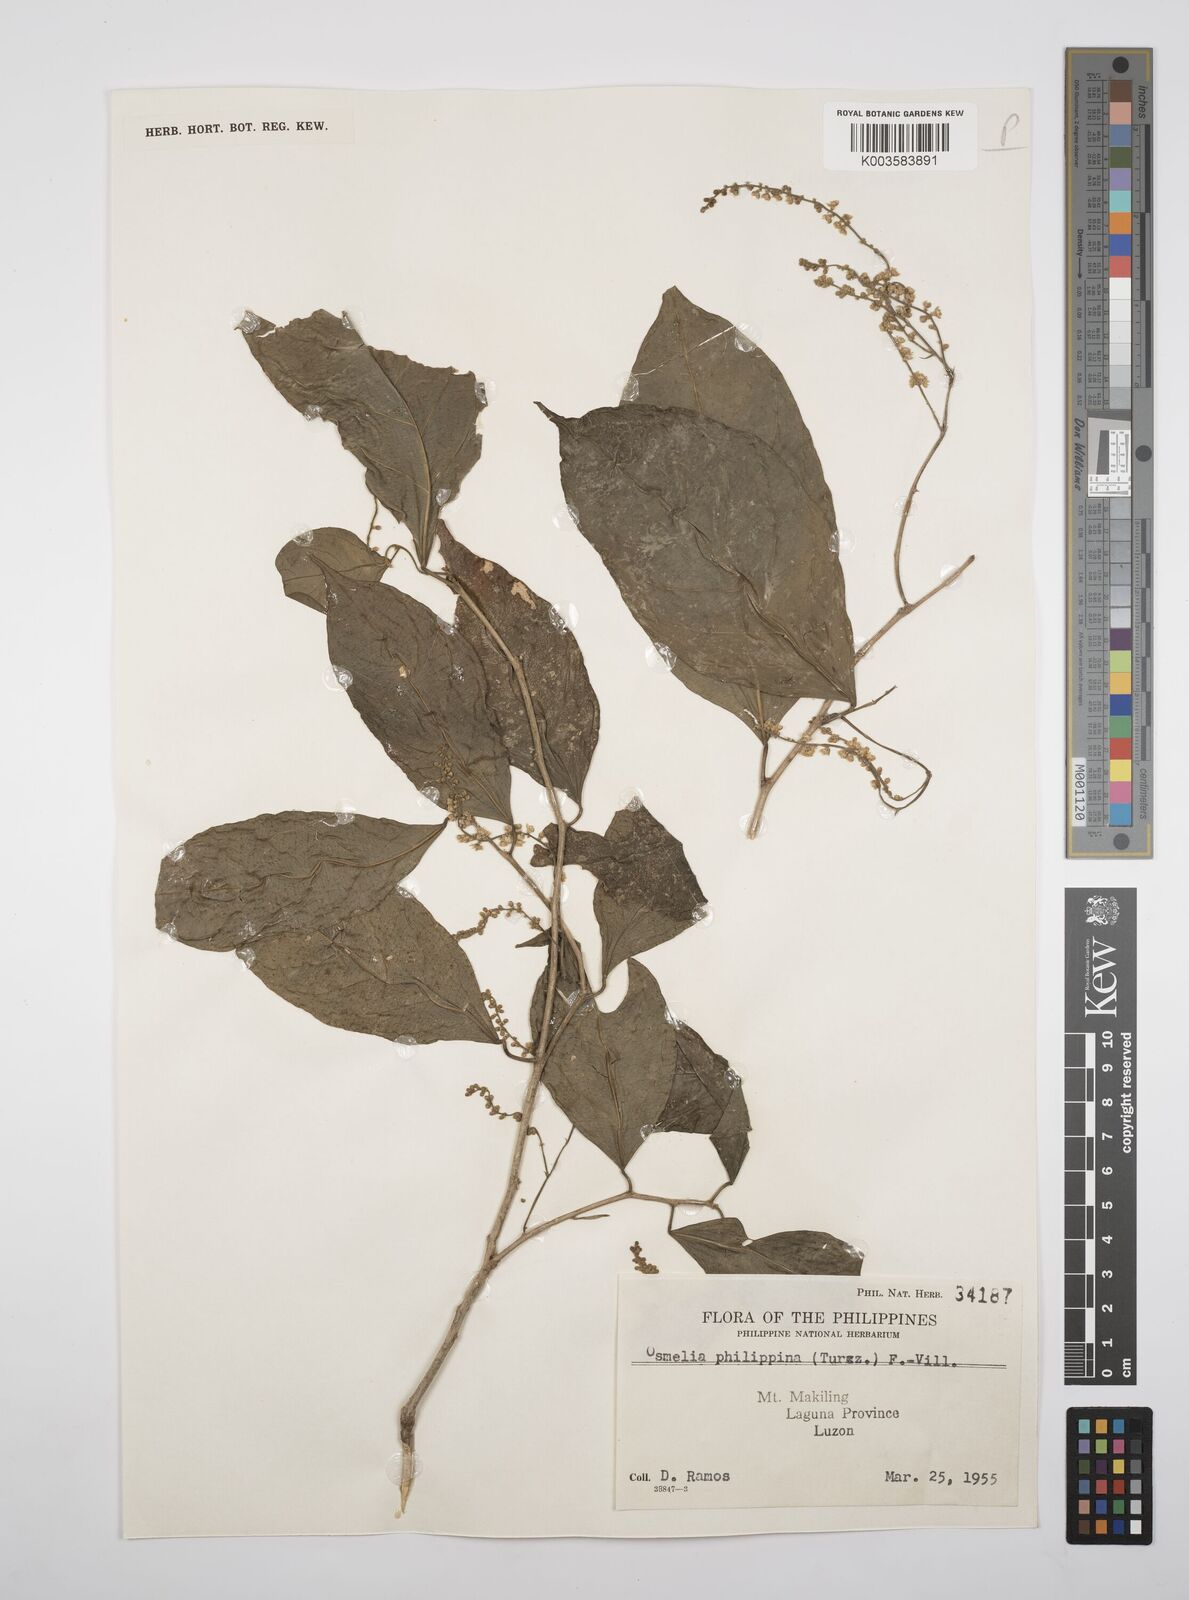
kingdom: Plantae
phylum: Tracheophyta
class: Magnoliopsida
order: Malpighiales
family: Salicaceae
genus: Osmelia
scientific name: Osmelia philippina
